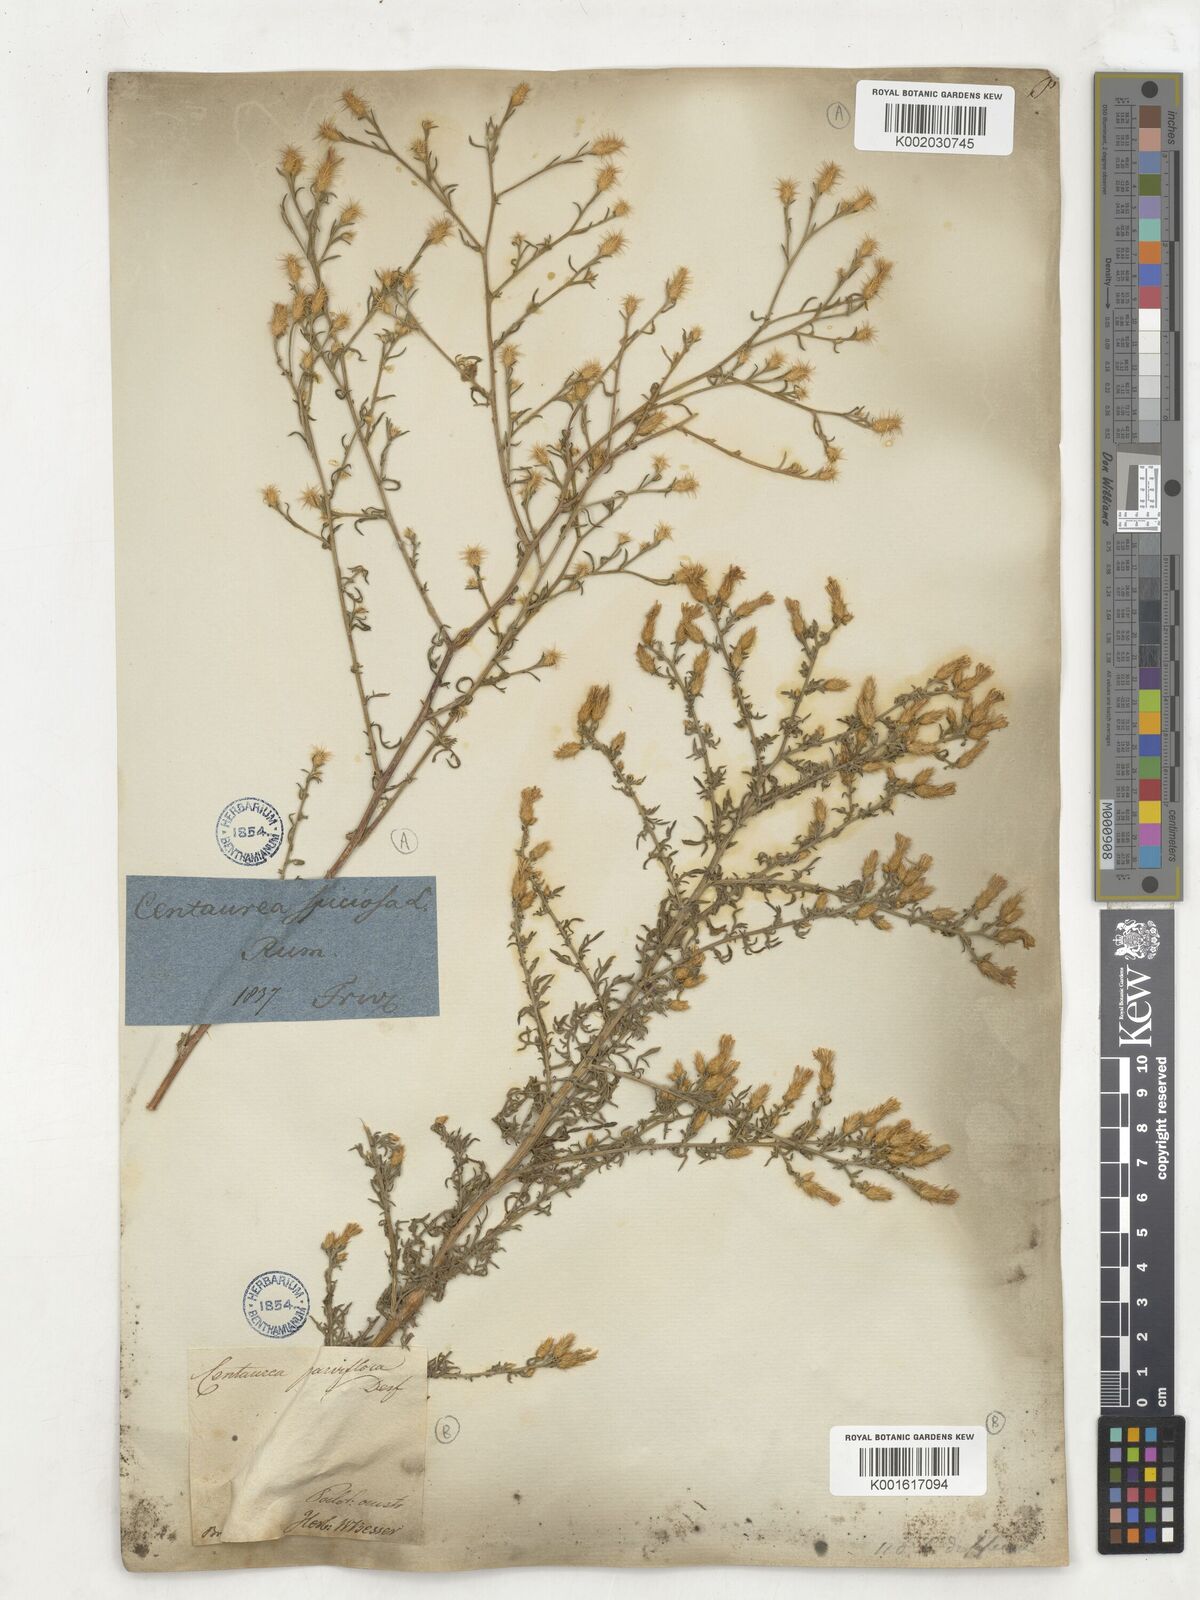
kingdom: Plantae
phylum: Tracheophyta
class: Magnoliopsida
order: Asterales
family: Asteraceae
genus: Centaurea
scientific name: Centaurea parviflora
